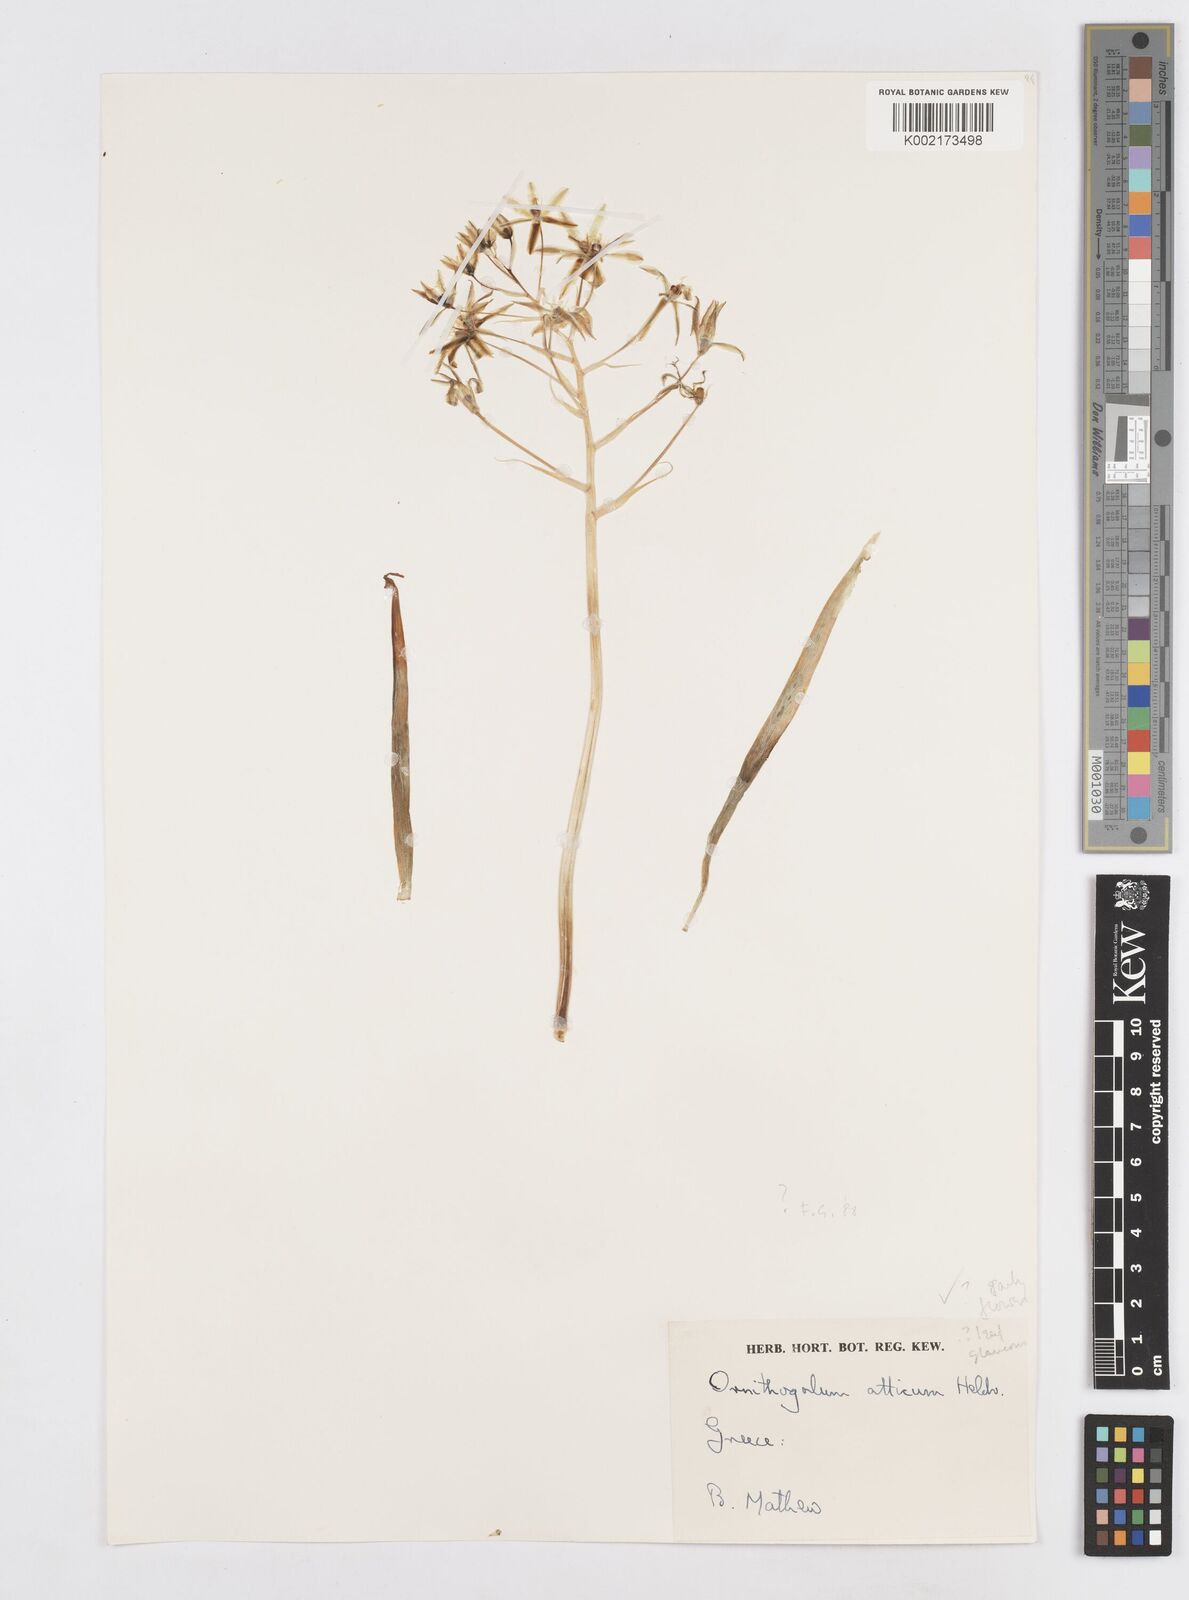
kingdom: Plantae
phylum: Tracheophyta
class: Liliopsida
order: Asparagales
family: Asparagaceae
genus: Ornithogalum
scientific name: Ornithogalum montanum
